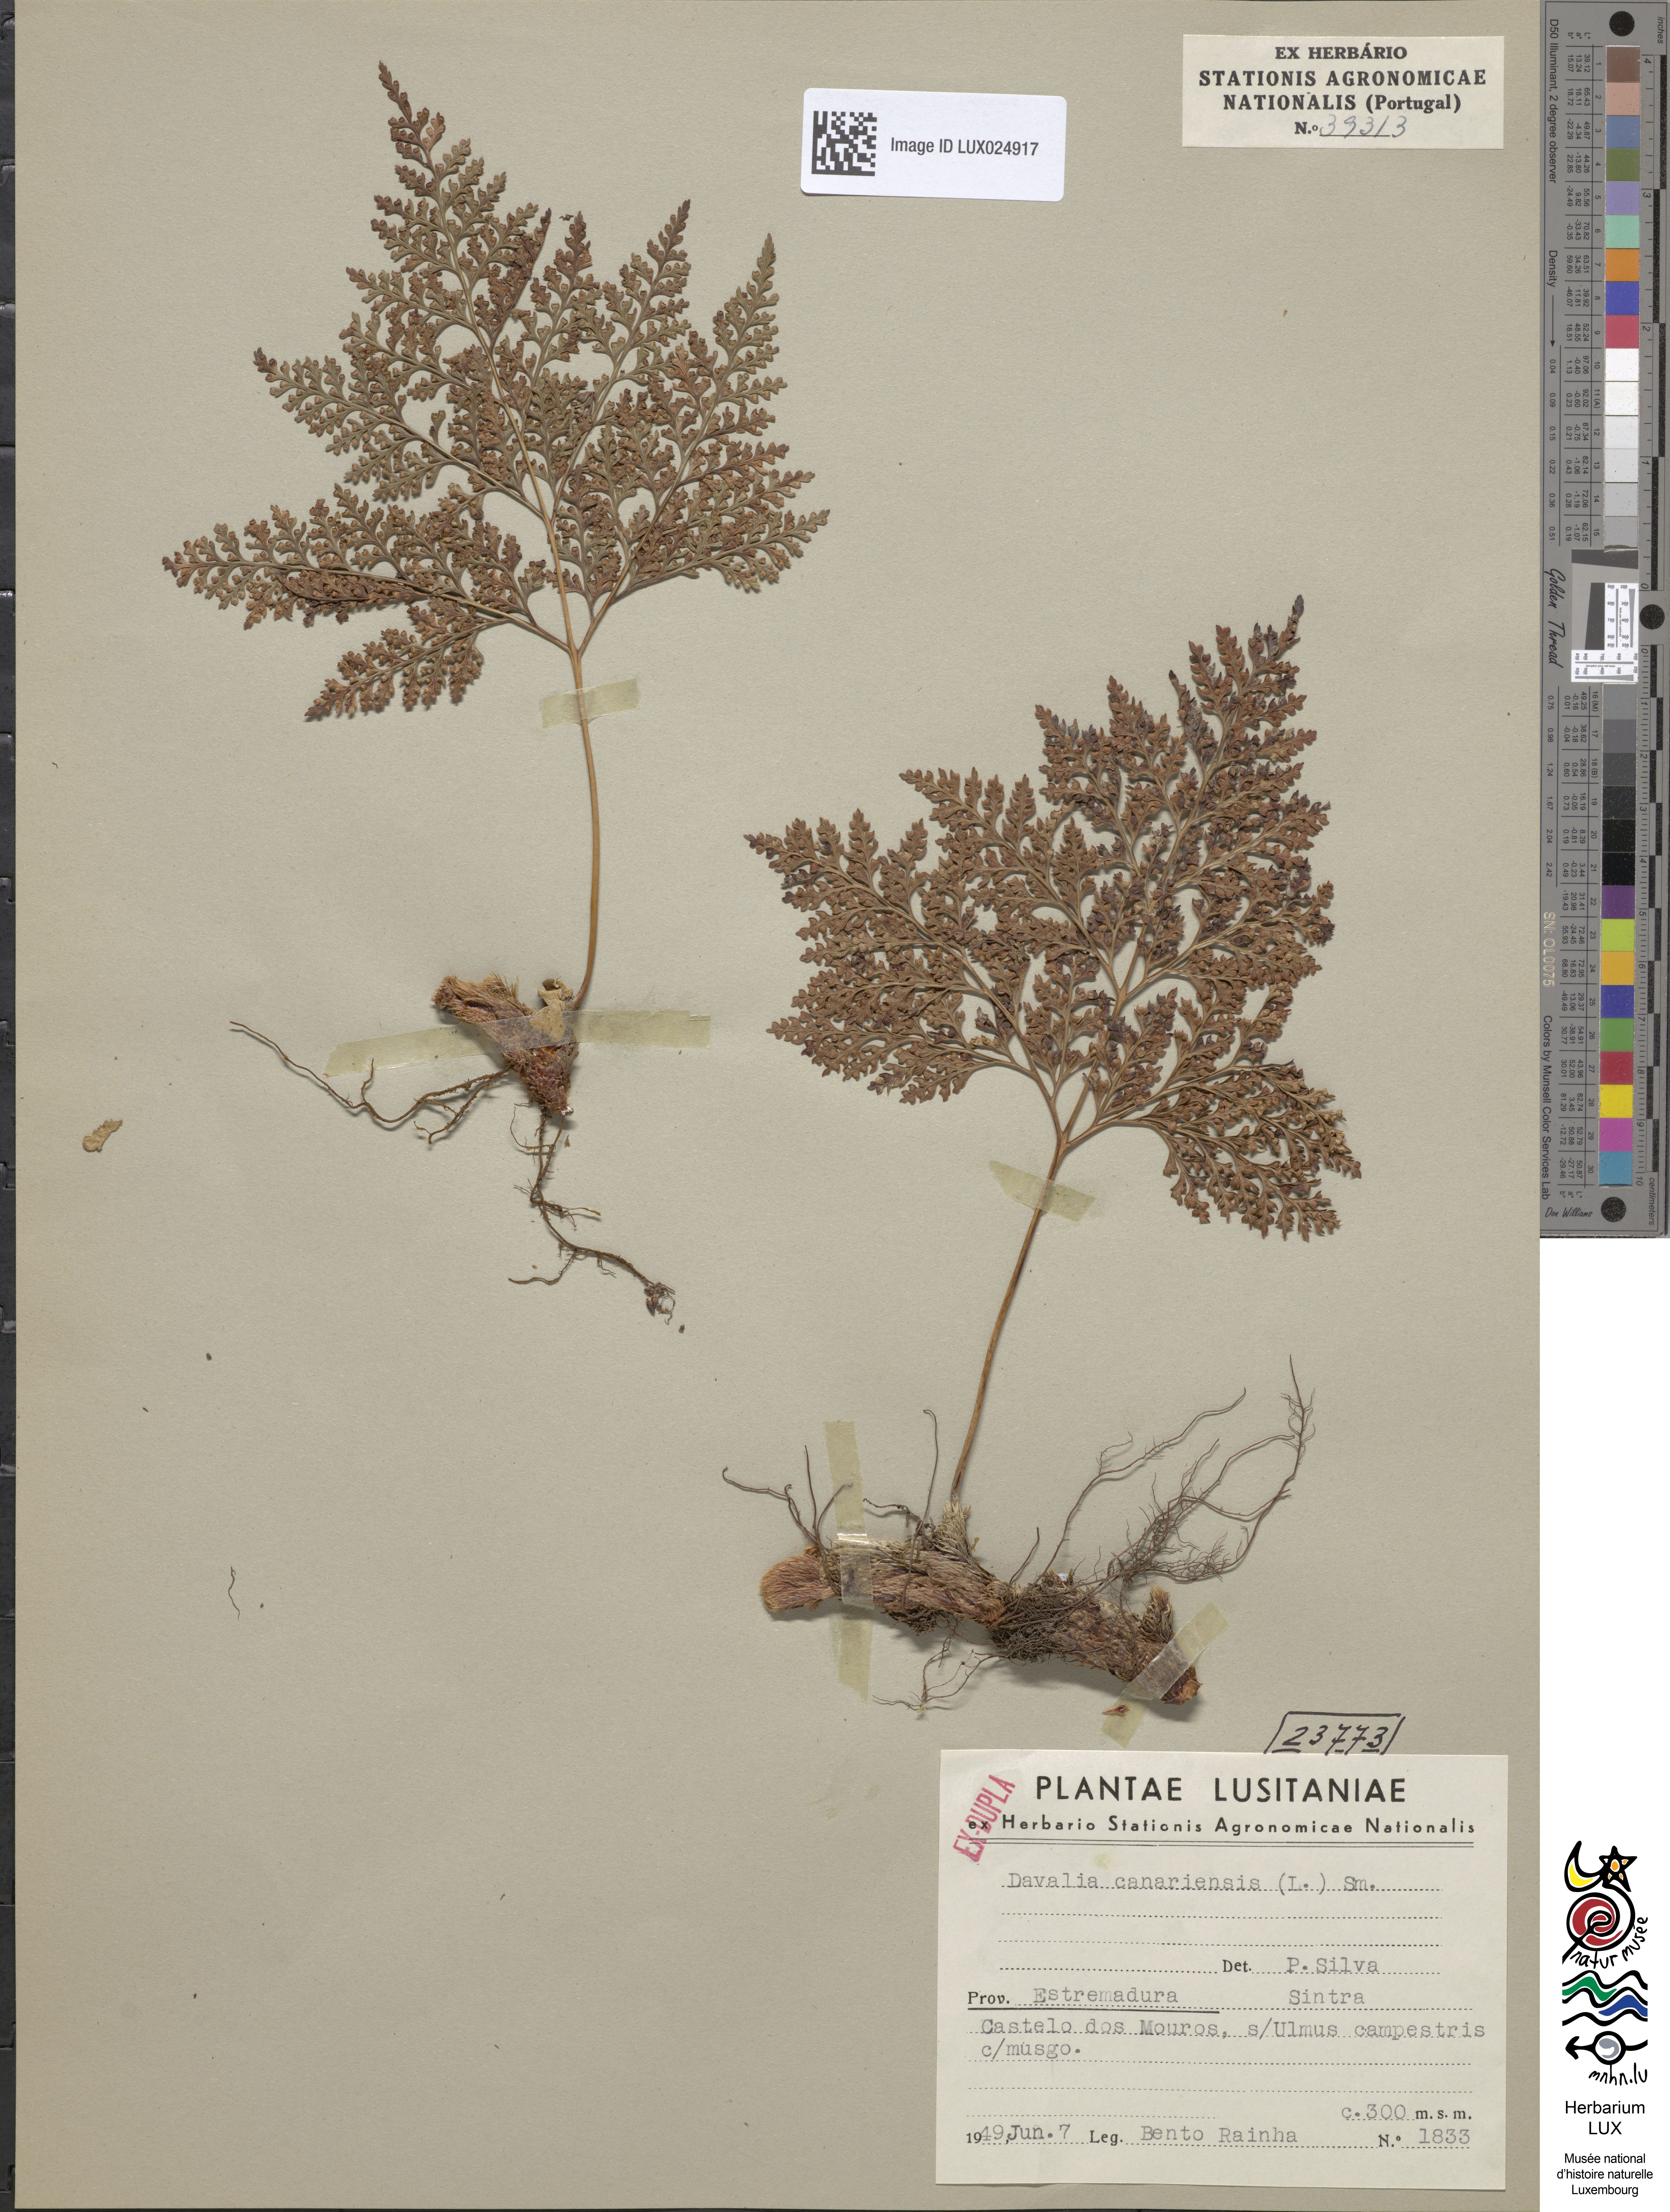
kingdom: Plantae
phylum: Tracheophyta
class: Polypodiopsida
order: Polypodiales
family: Davalliaceae
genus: Davallia
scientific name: Davallia canariensis
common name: Hare's-foot fern
